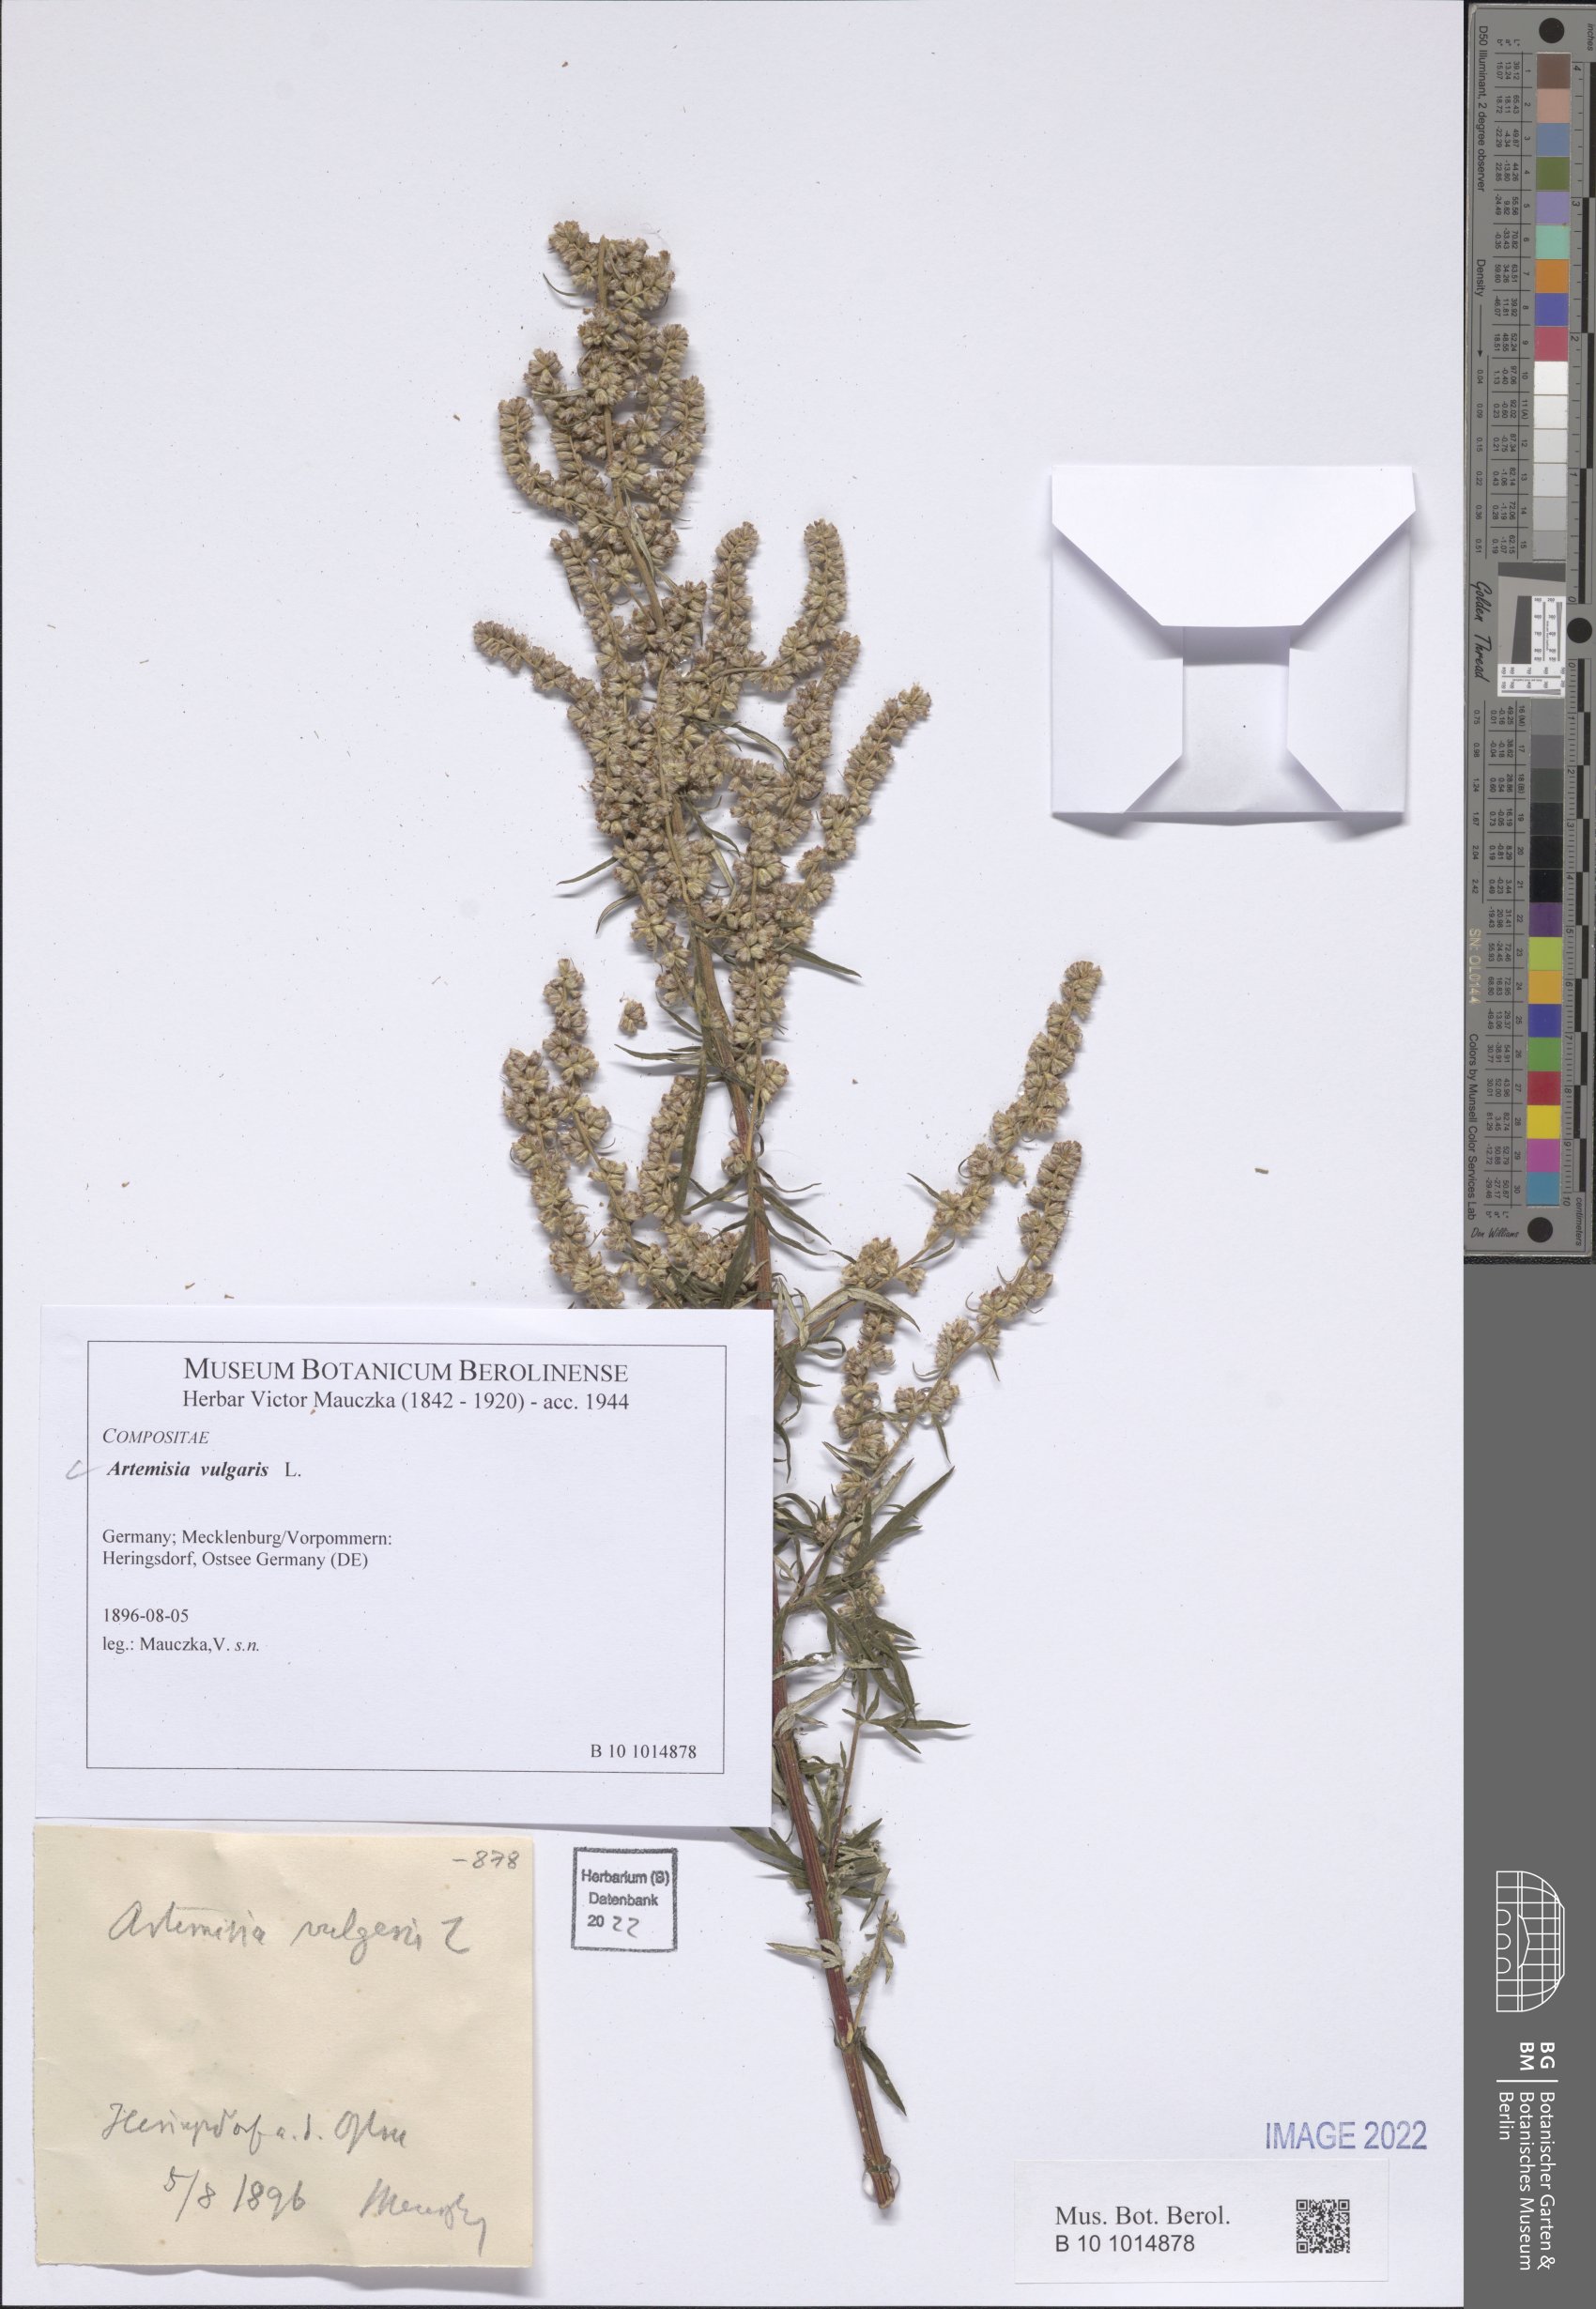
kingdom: Plantae
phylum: Tracheophyta
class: Magnoliopsida
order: Asterales
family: Asteraceae
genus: Artemisia
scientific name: Artemisia vulgaris
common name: Mugwort
